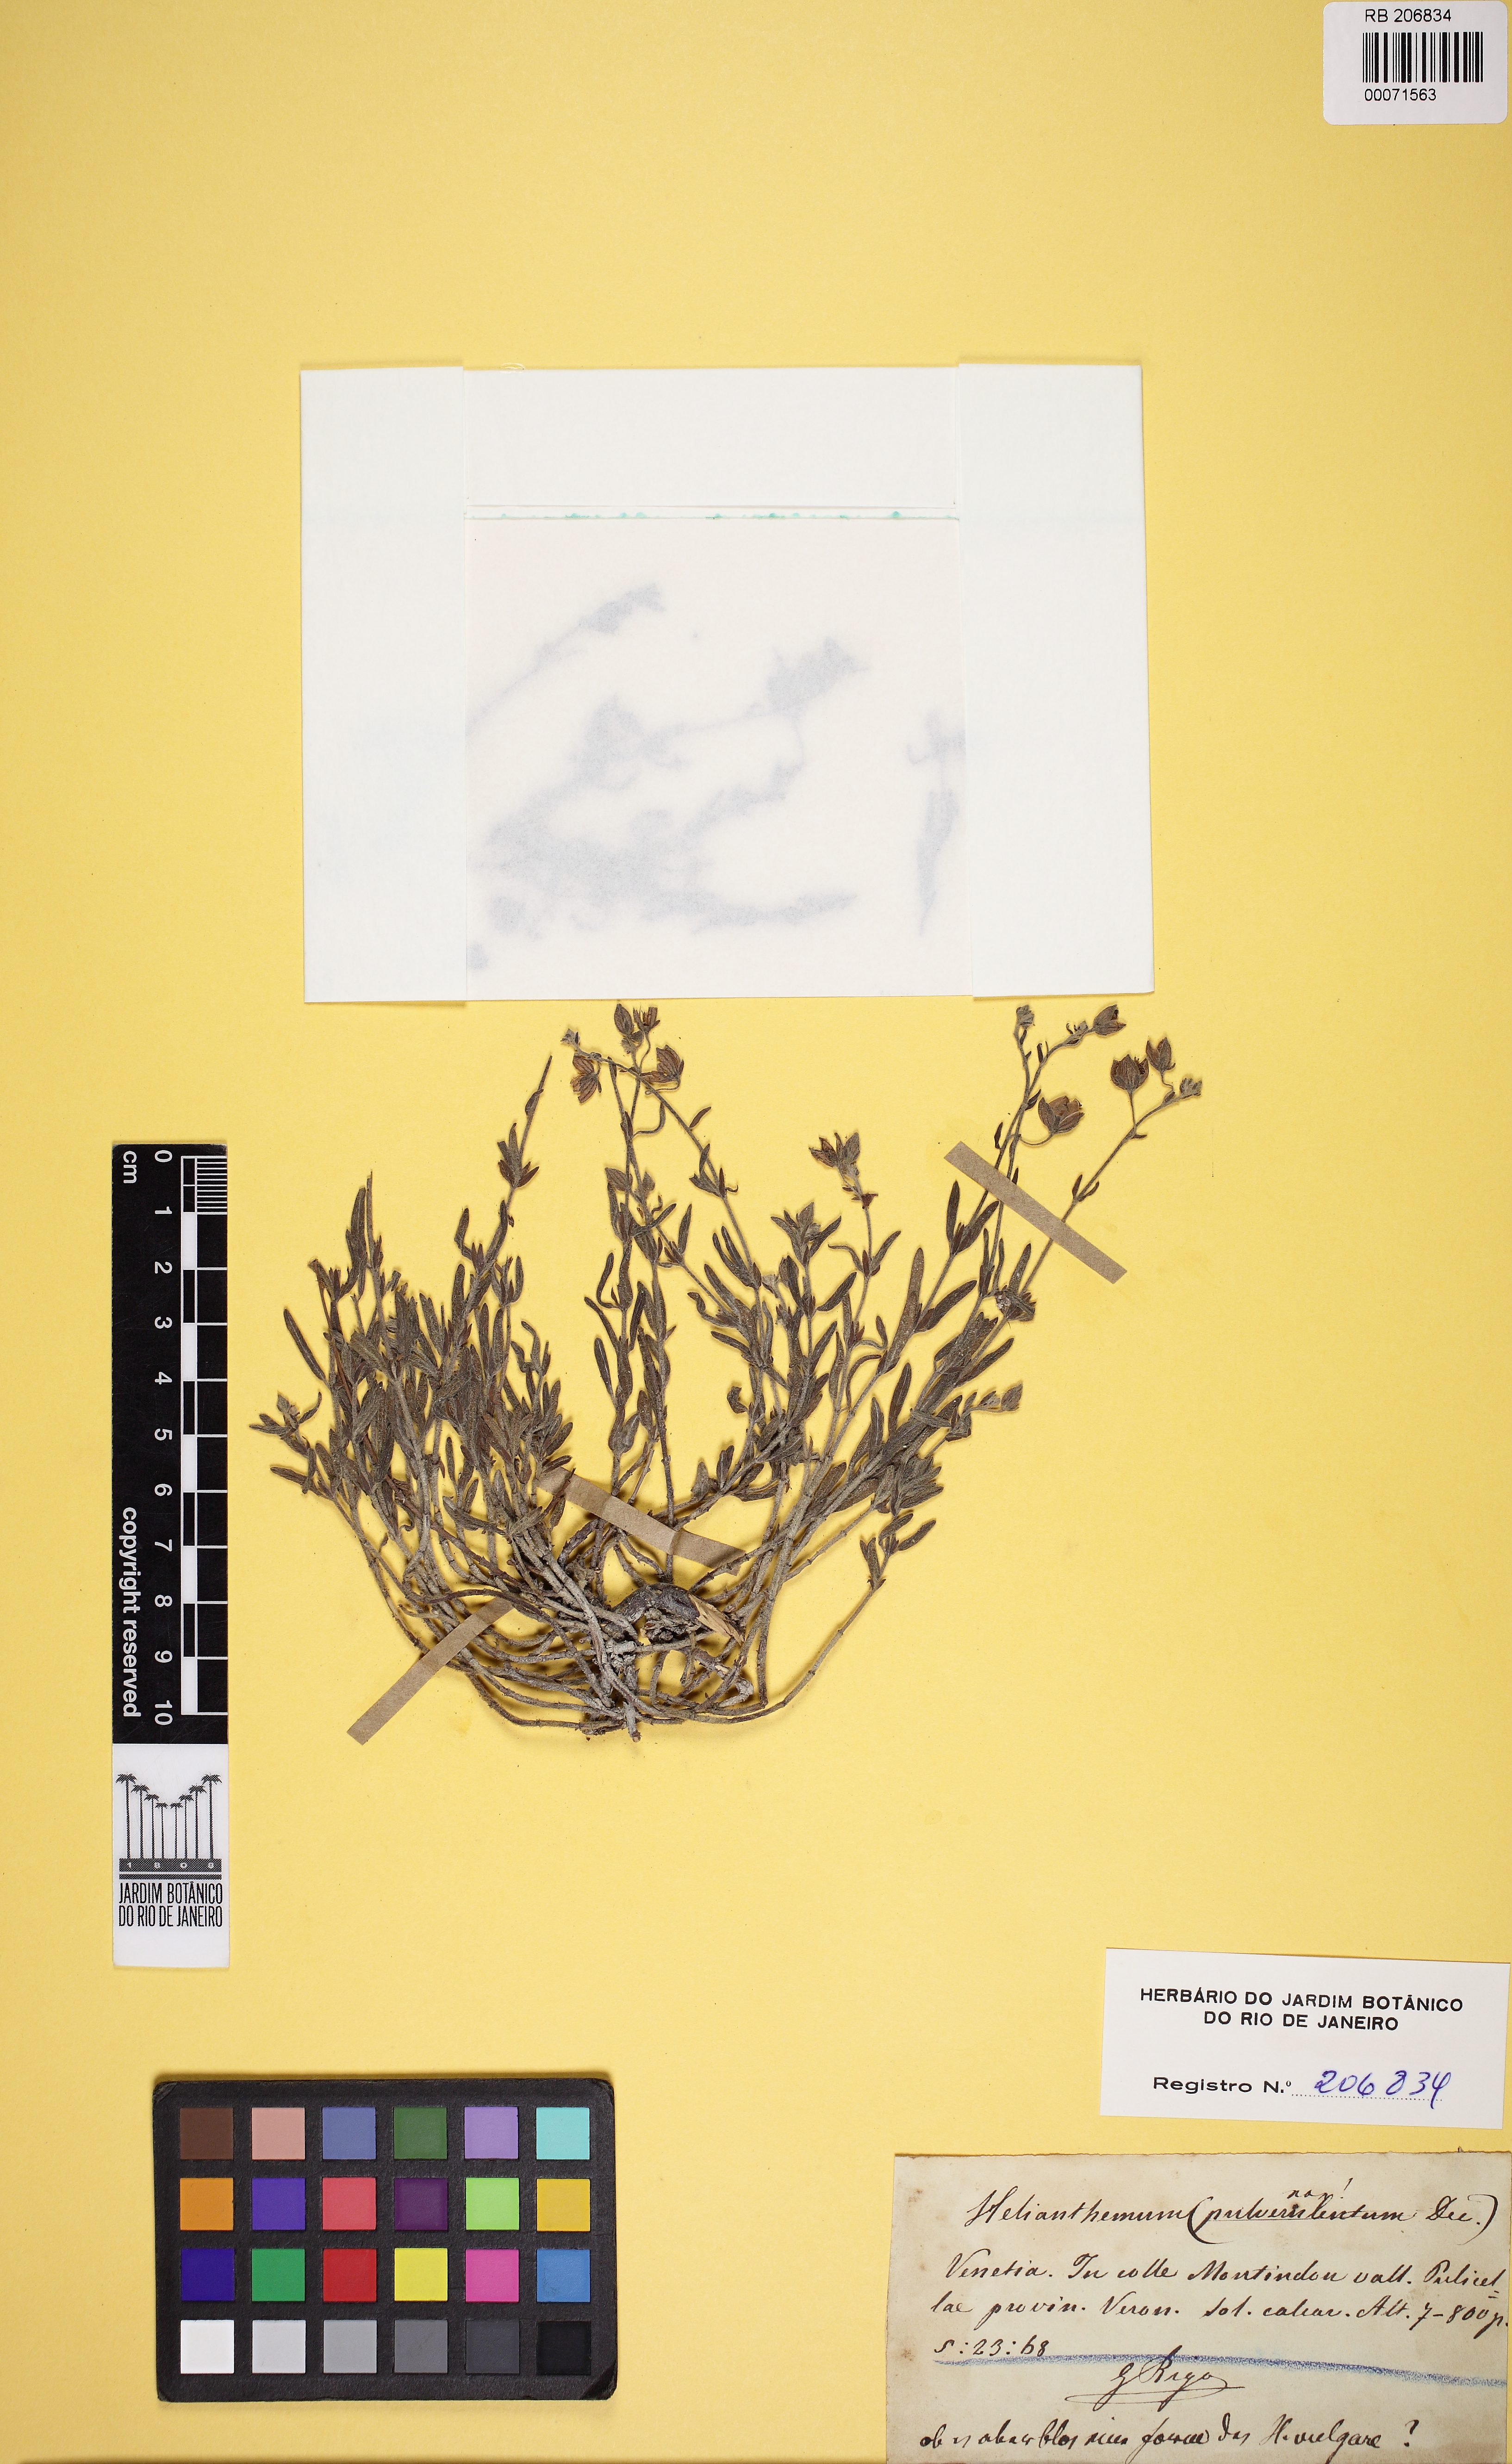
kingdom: Plantae
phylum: Tracheophyta
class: Magnoliopsida
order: Malvales
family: Cistaceae
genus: Helianthemum
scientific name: Helianthemum apenninum
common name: White rock-rose
